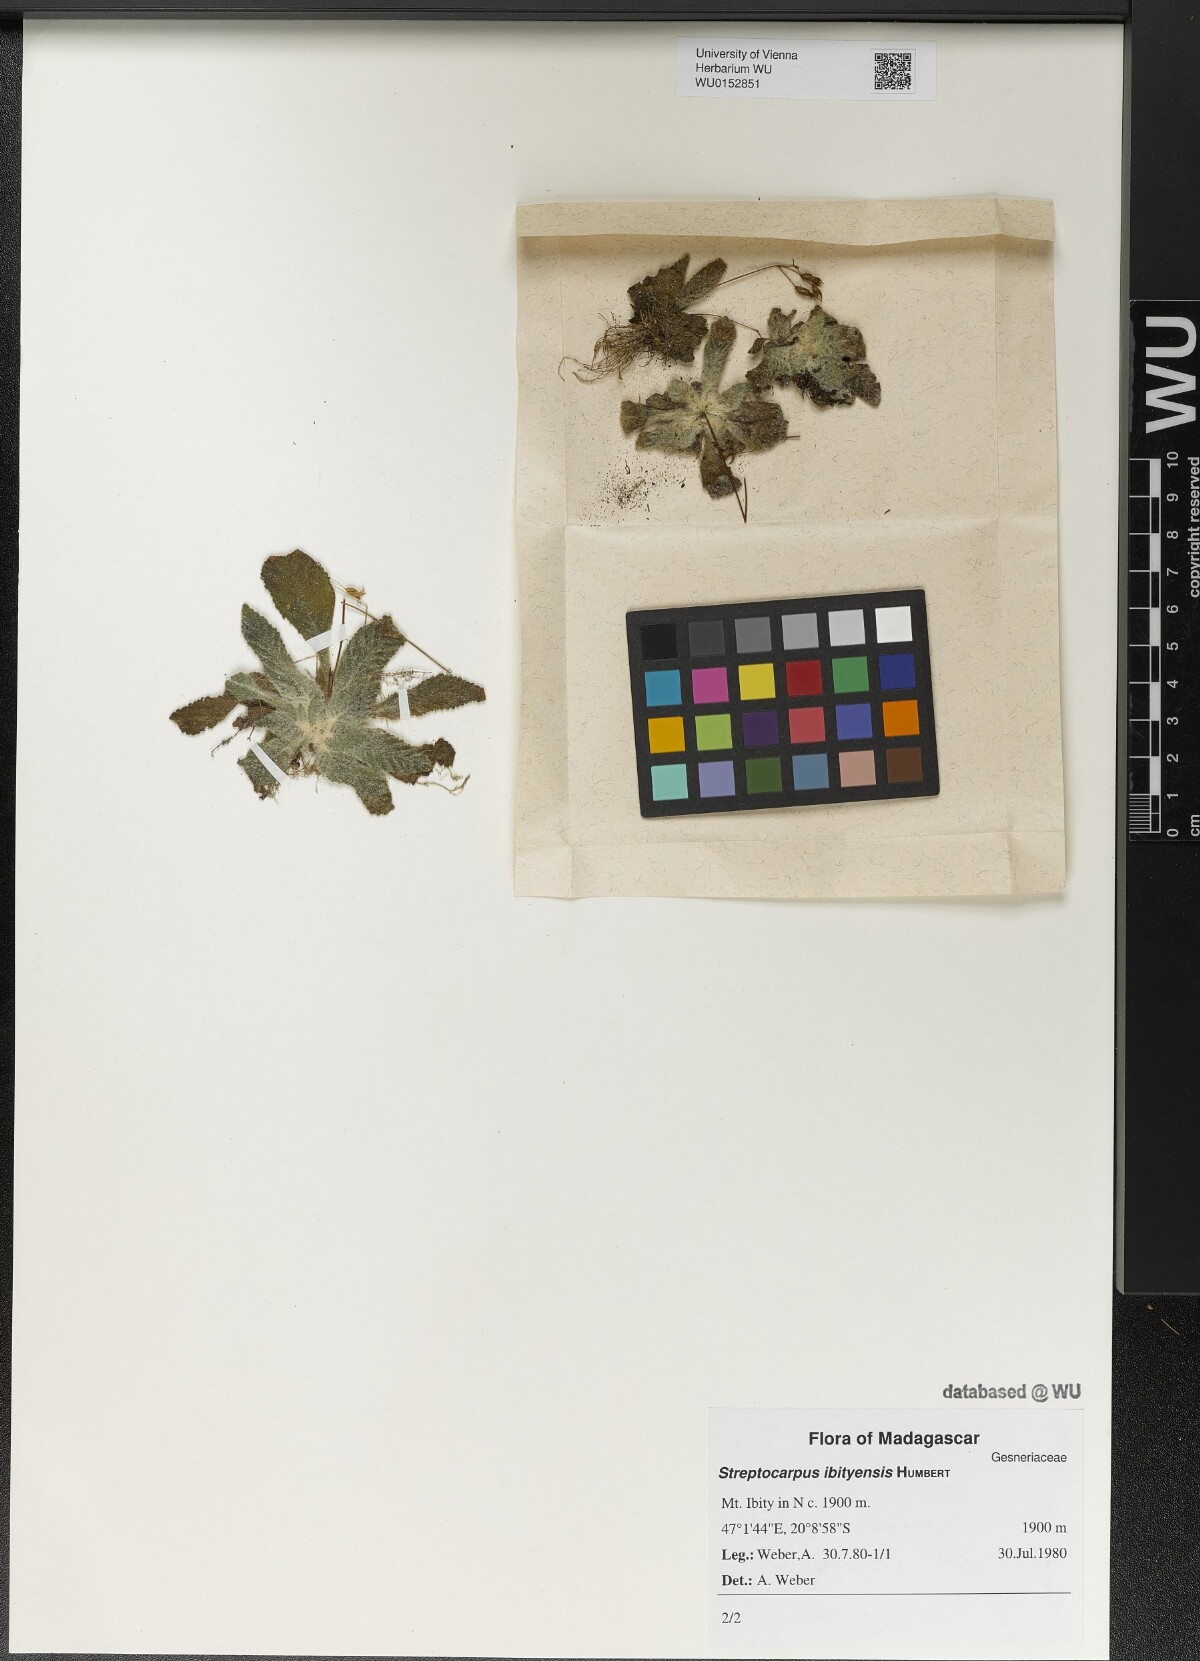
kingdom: Plantae
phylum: Tracheophyta
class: Magnoliopsida
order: Lamiales
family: Gesneriaceae
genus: Streptocarpus
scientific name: Streptocarpus ibityensis
